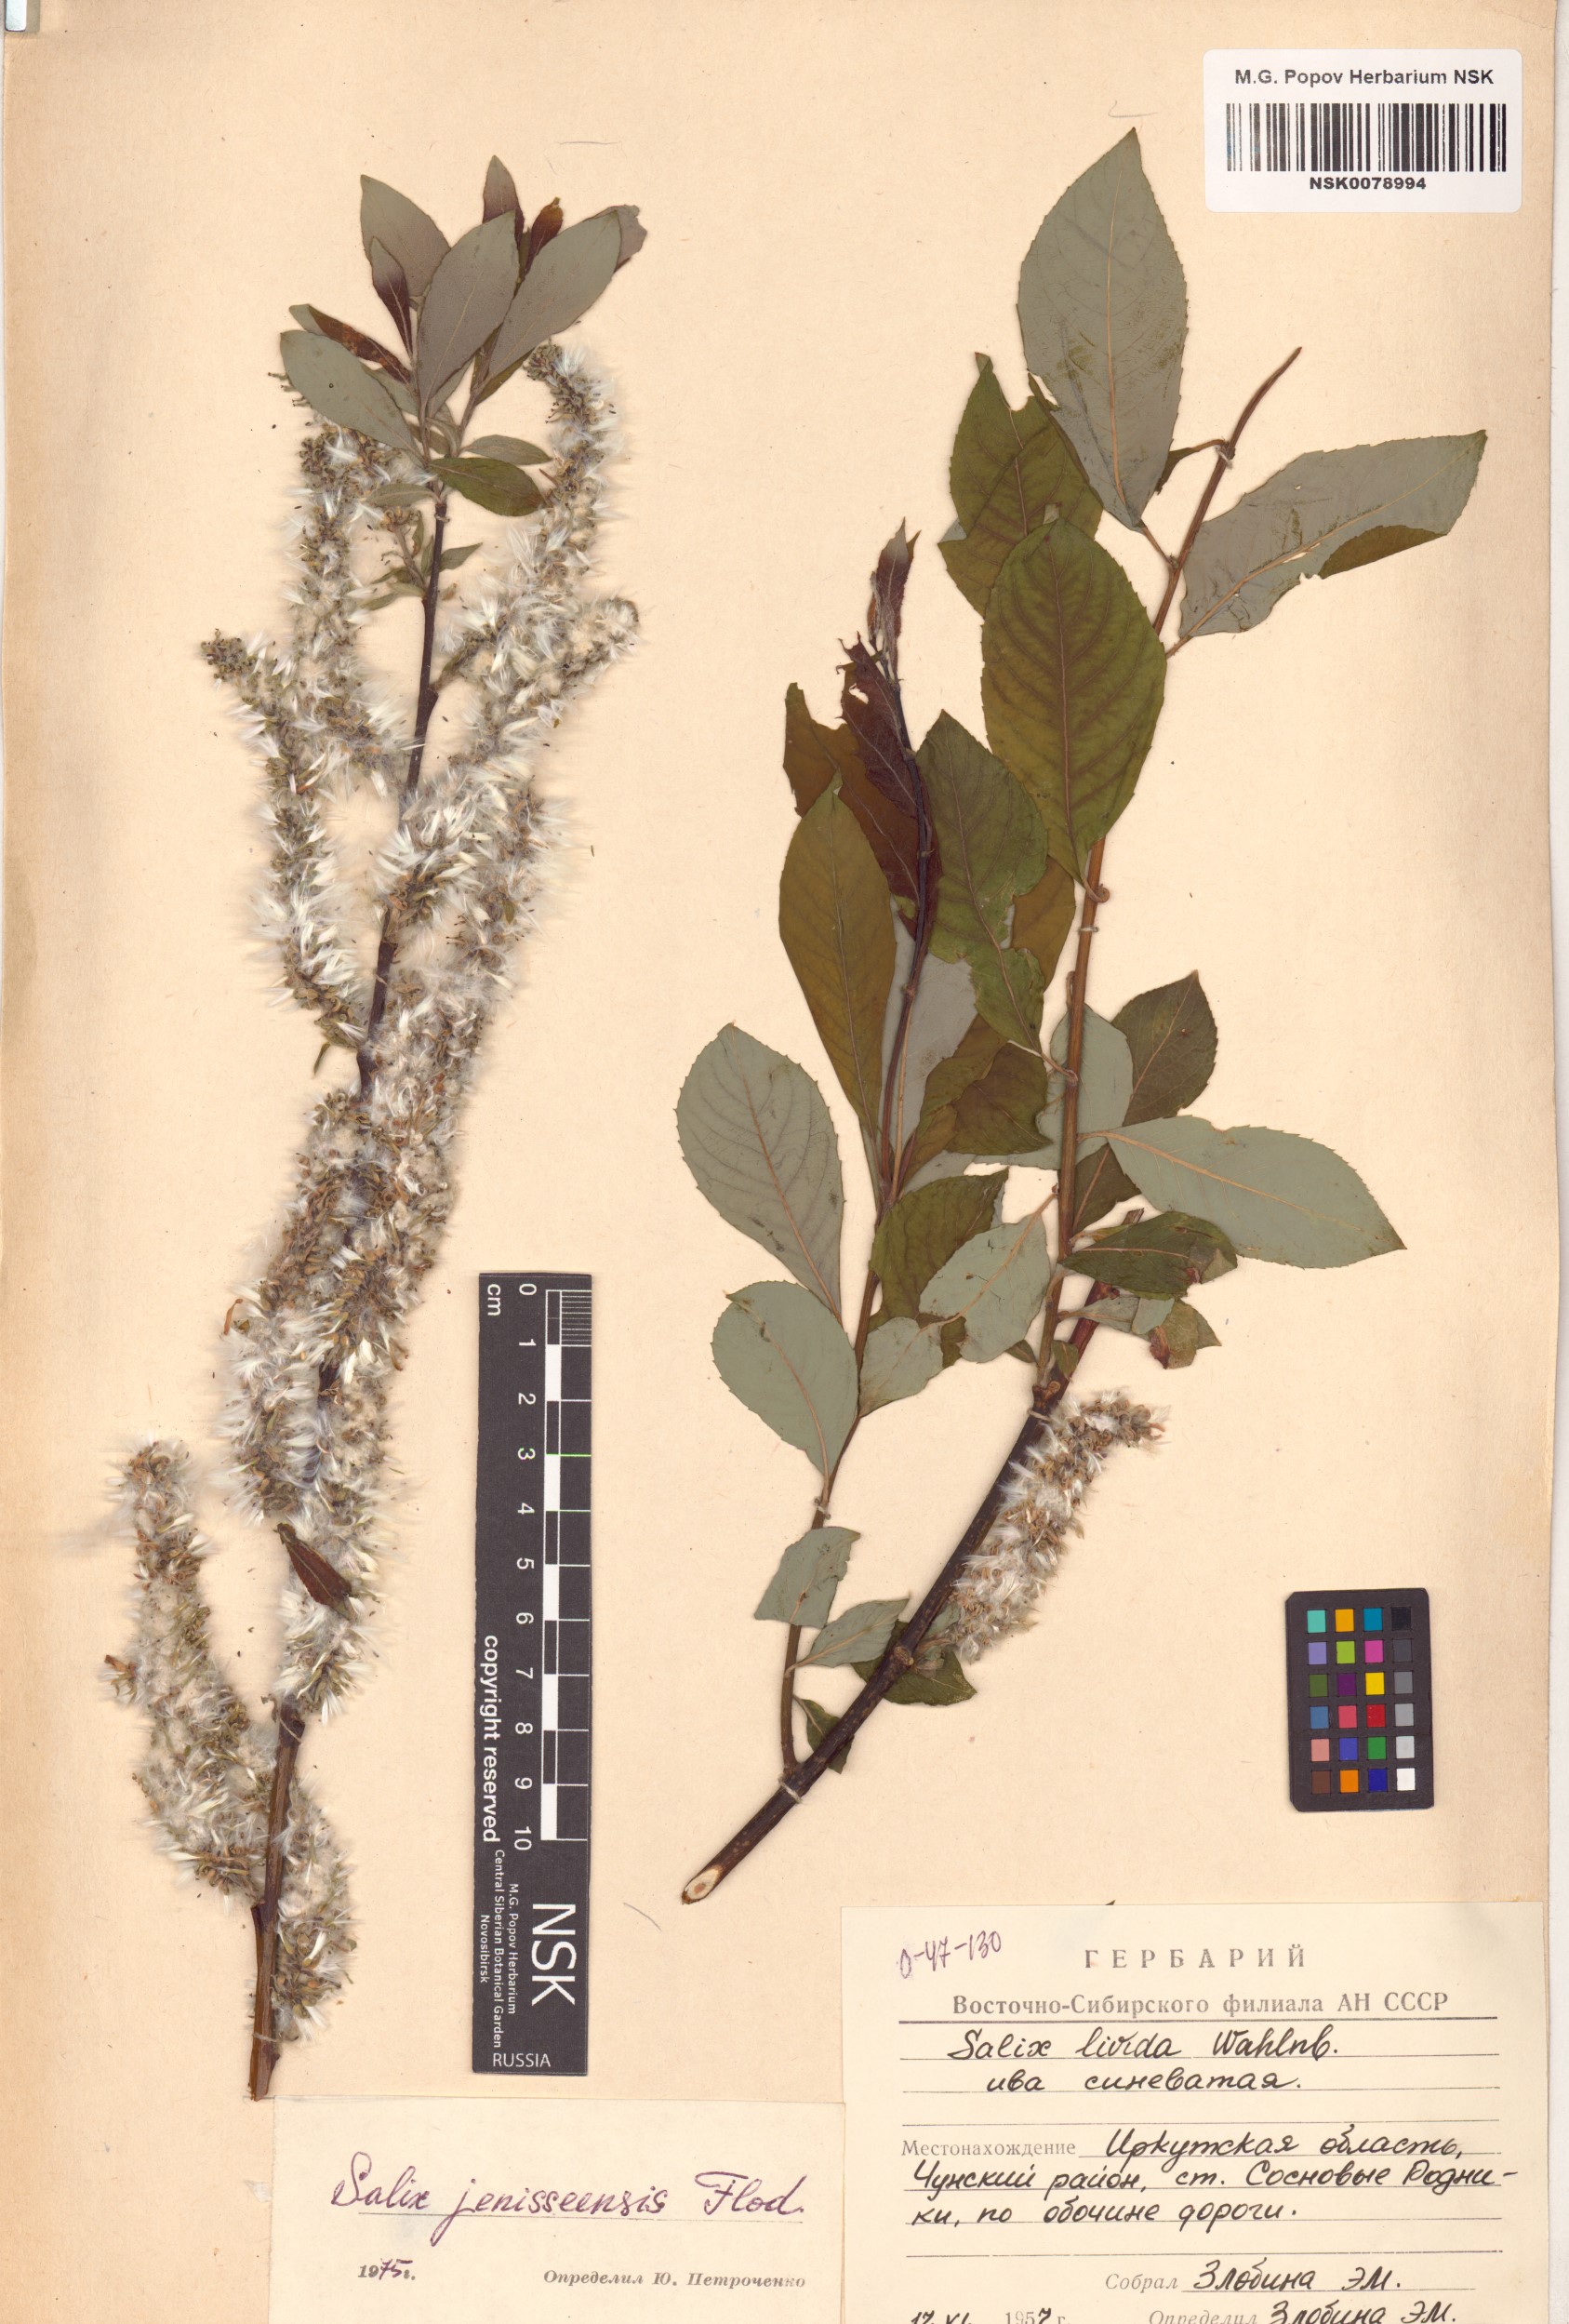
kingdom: Plantae
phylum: Tracheophyta
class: Magnoliopsida
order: Malpighiales
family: Salicaceae
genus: Salix
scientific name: Salix jenisseensis
